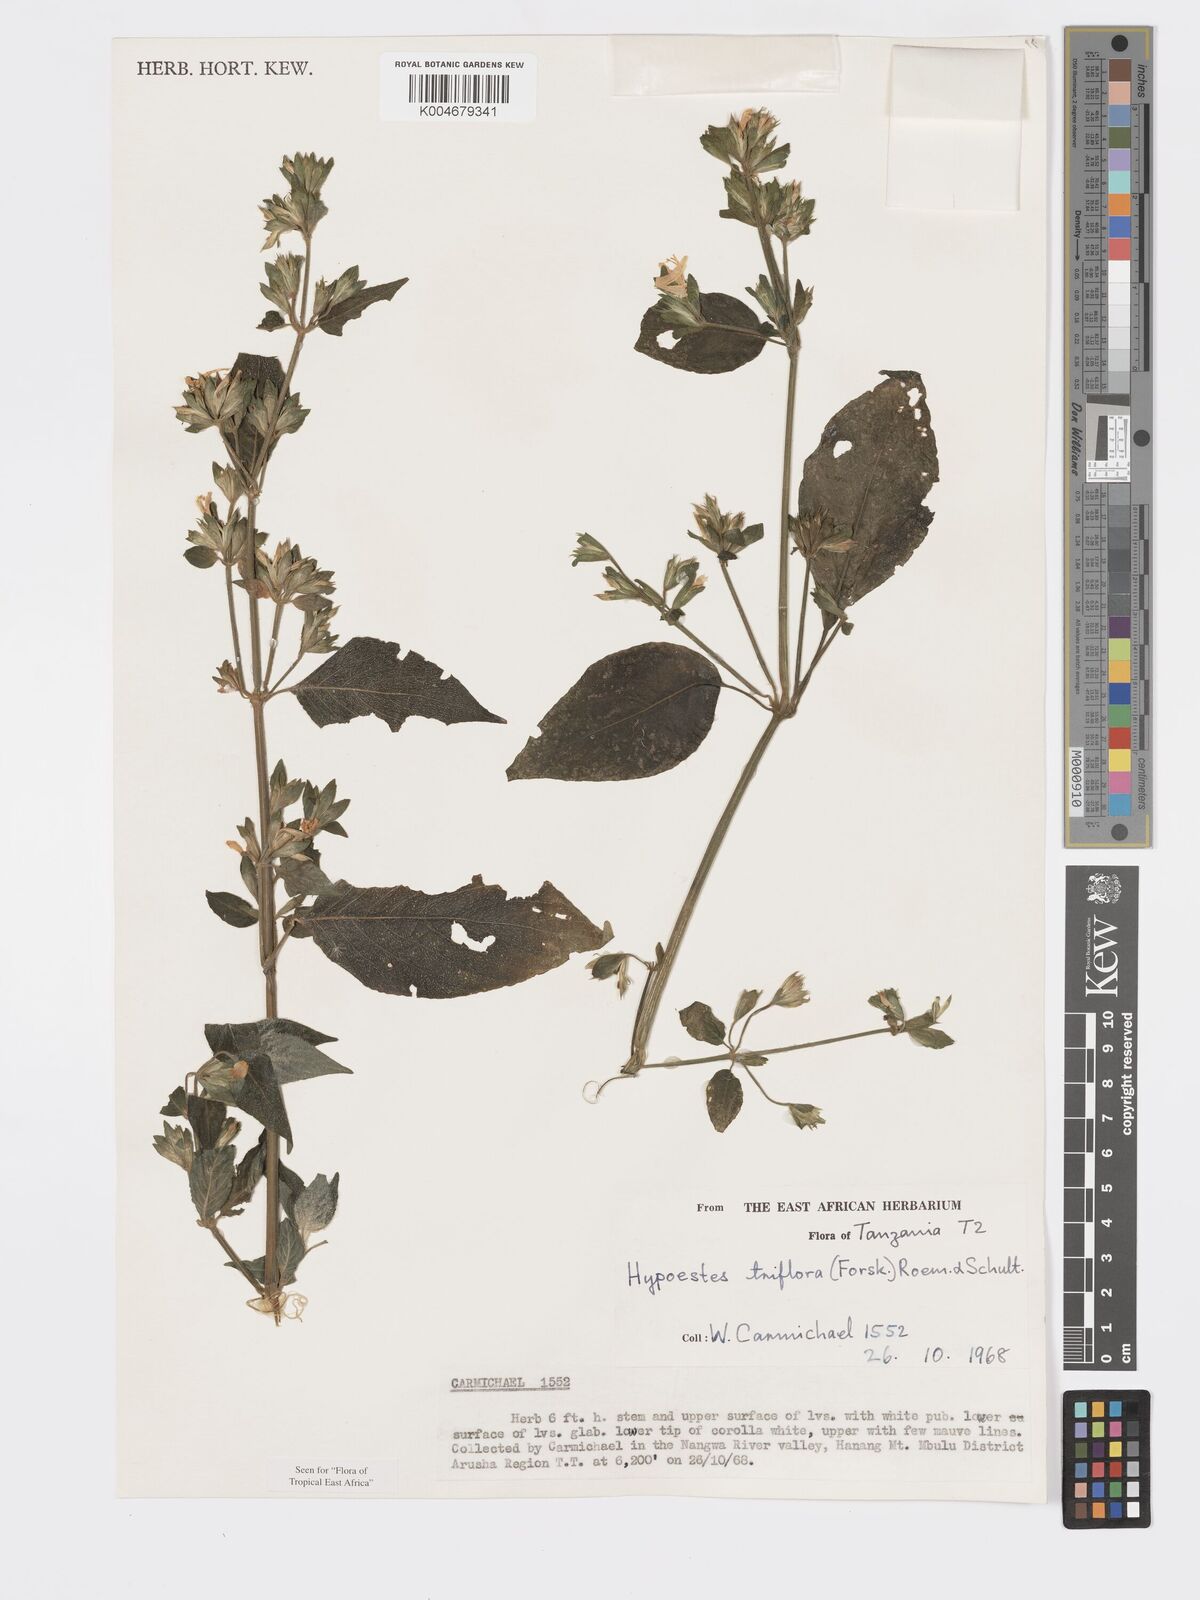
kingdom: Plantae
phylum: Tracheophyta
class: Magnoliopsida
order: Lamiales
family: Acanthaceae
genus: Hypoestes
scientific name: Hypoestes triflora
